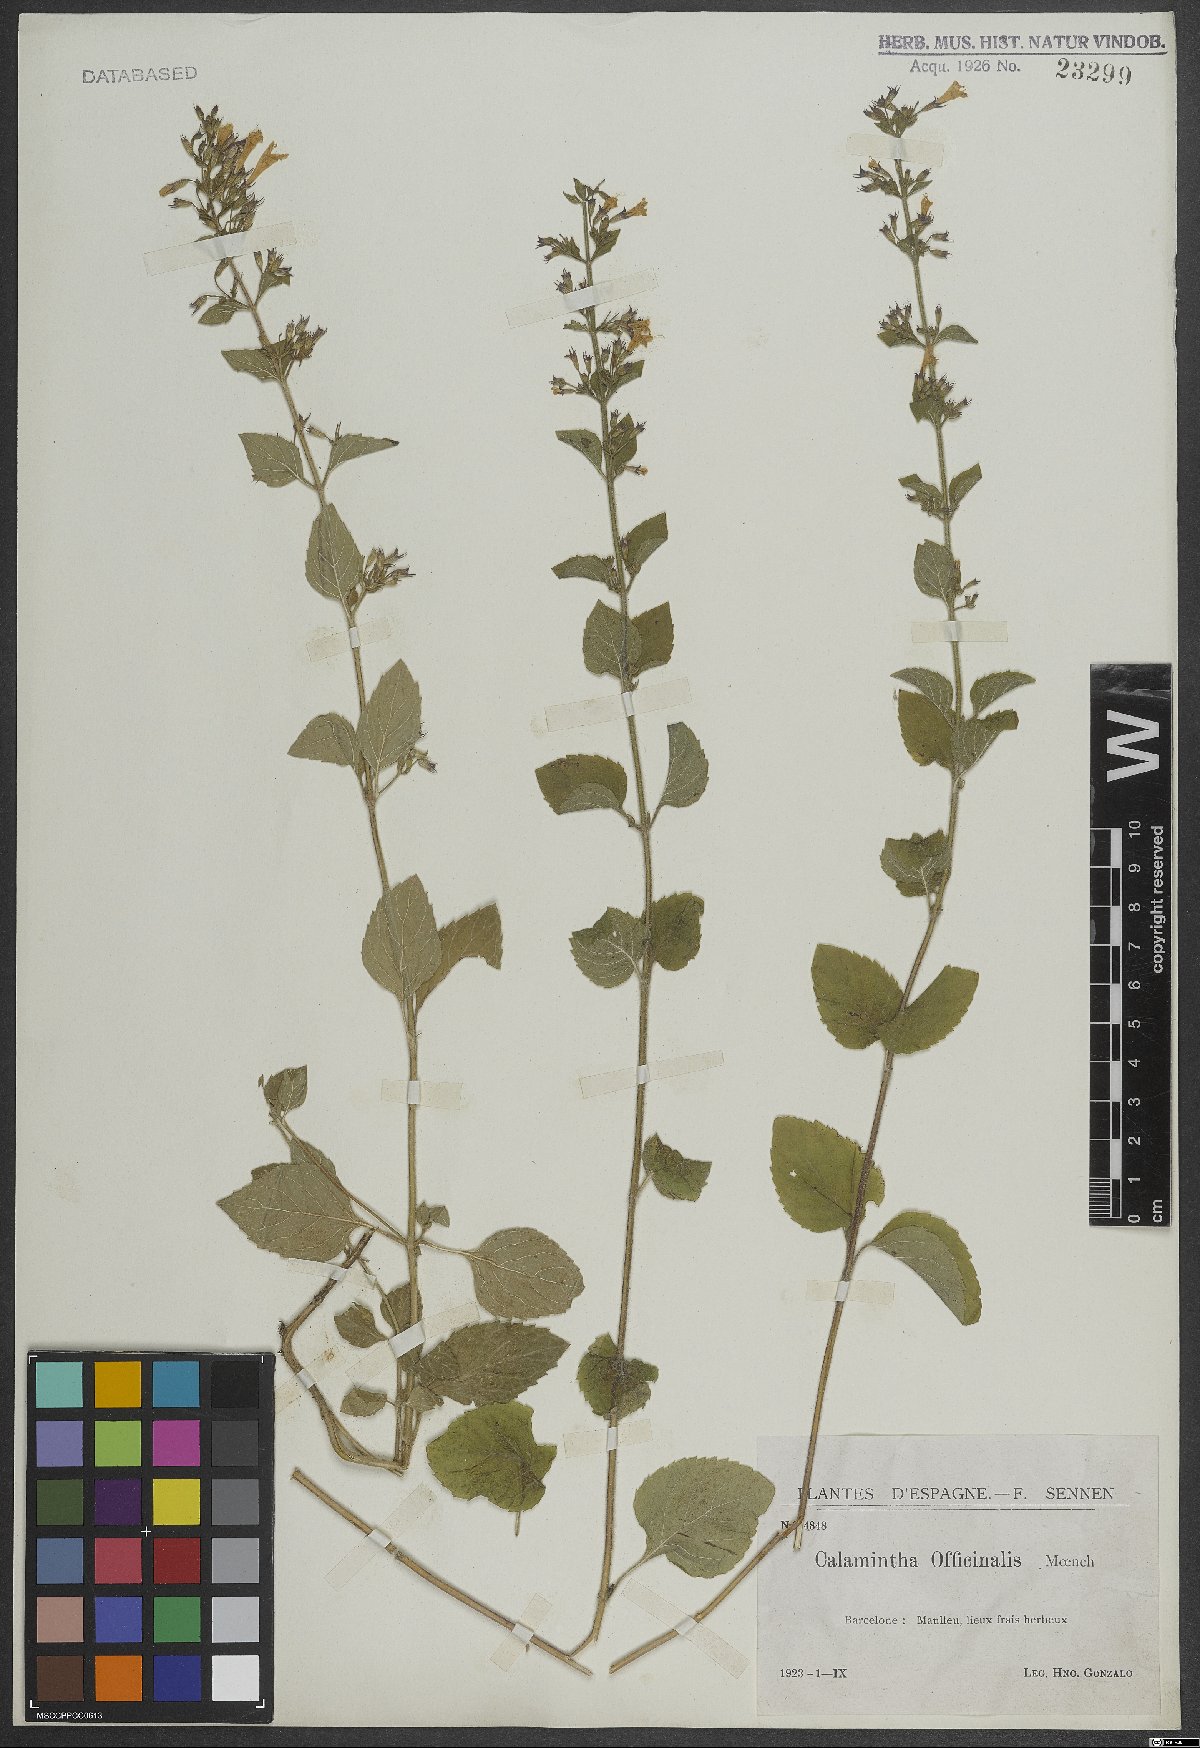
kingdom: Plantae
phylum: Tracheophyta
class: Magnoliopsida
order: Lamiales
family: Lamiaceae
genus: Clinopodium
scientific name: Clinopodium nepeta
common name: Lesser calamint
